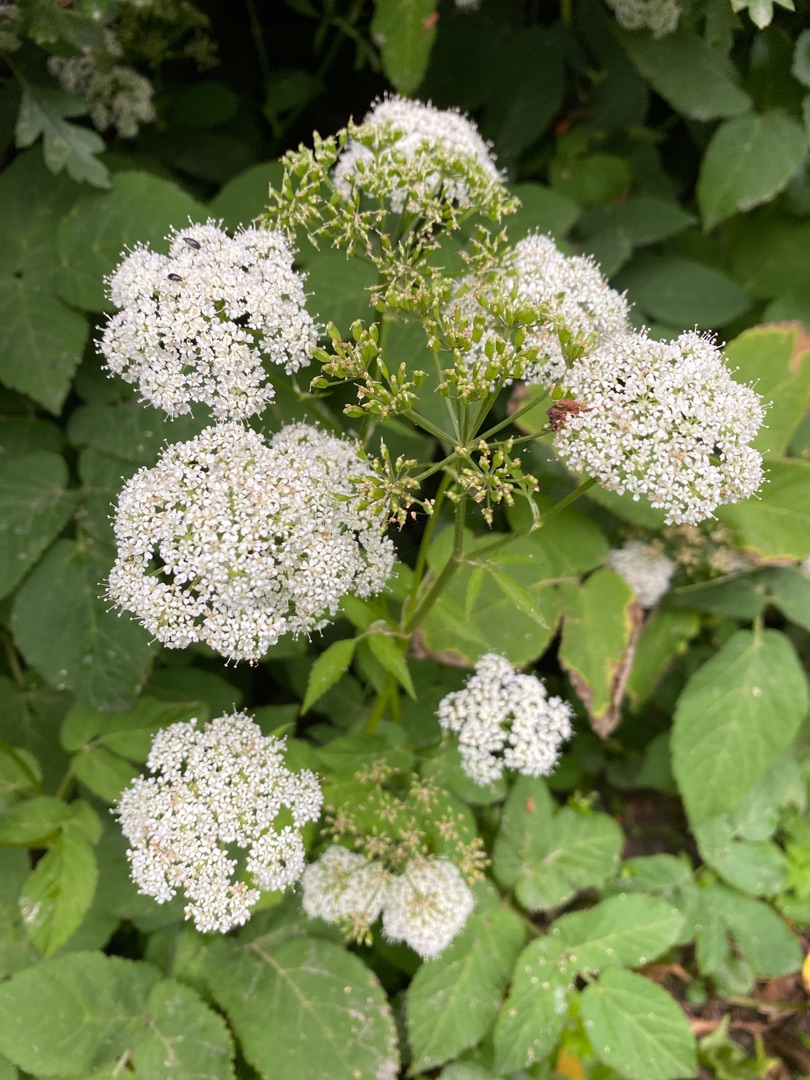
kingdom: Plantae
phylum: Tracheophyta
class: Magnoliopsida
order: Apiales
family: Apiaceae
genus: Aegopodium
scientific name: Aegopodium podagraria
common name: Skvalderkål
